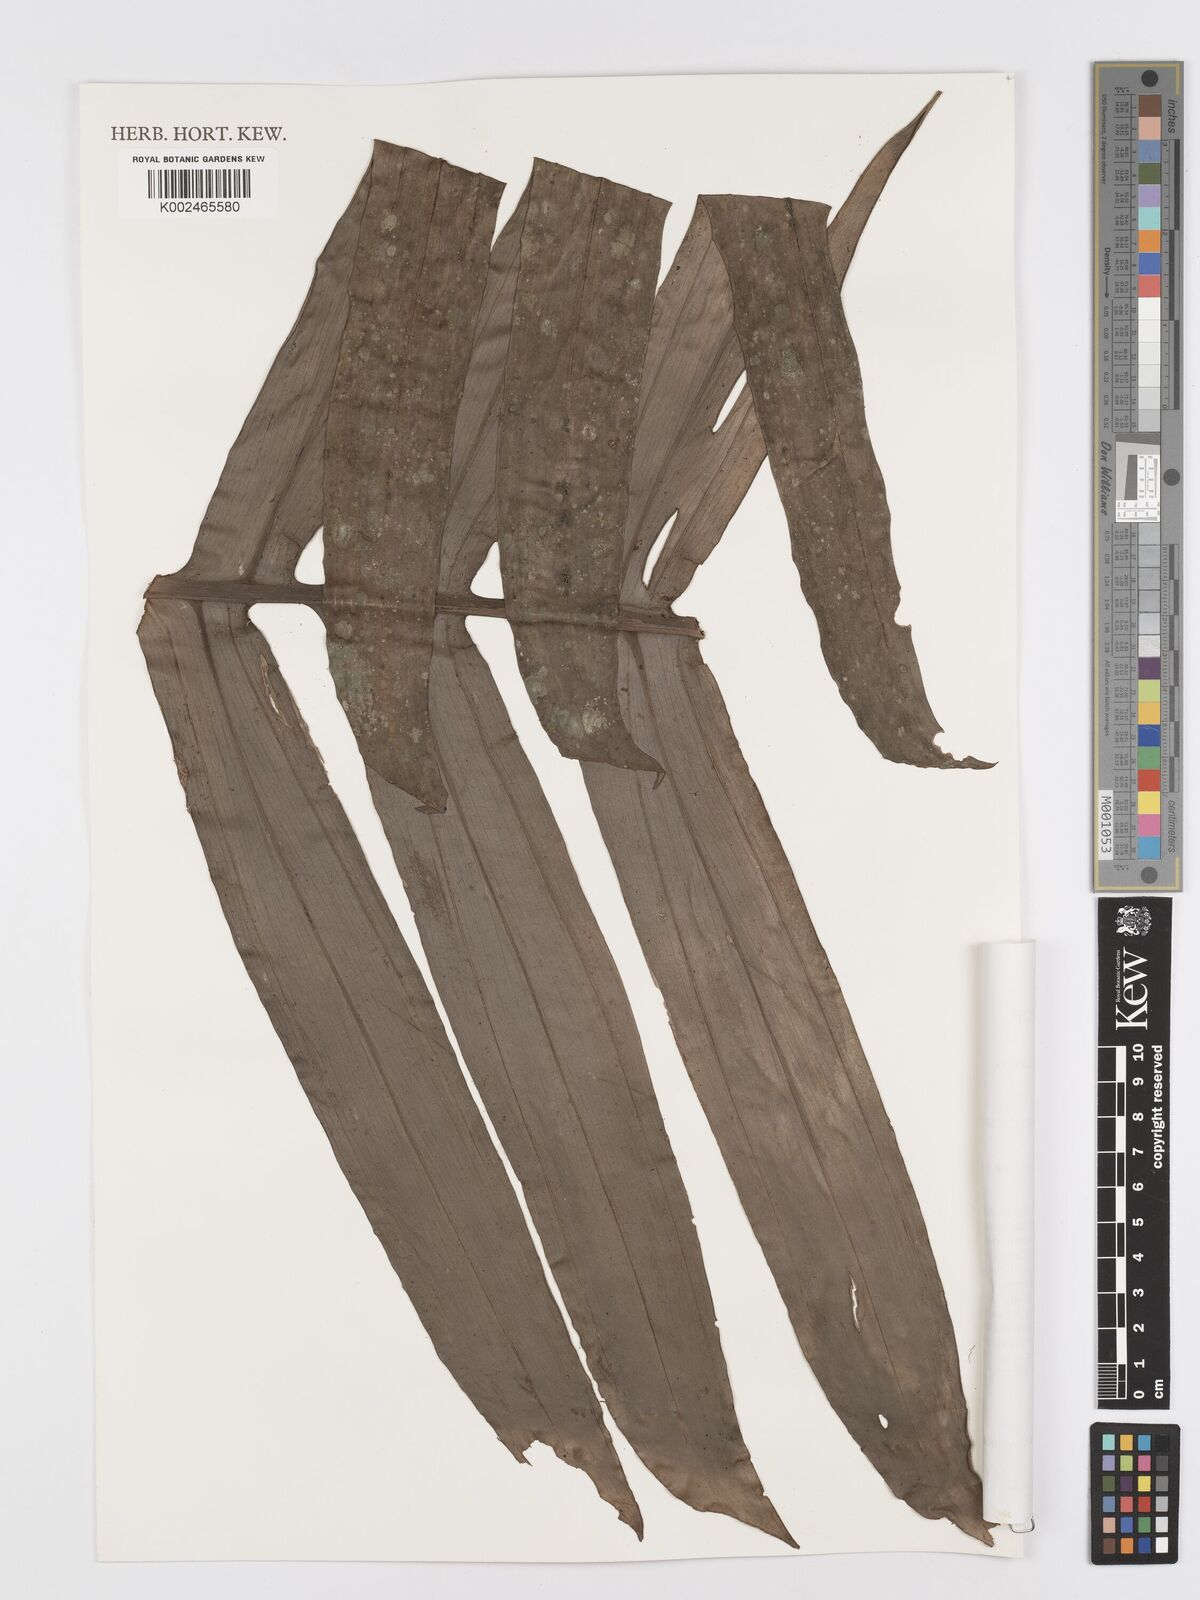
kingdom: Plantae
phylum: Tracheophyta
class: Liliopsida
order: Alismatales
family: Araceae
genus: Rhaphidophora
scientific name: Rhaphidophora decursiva
